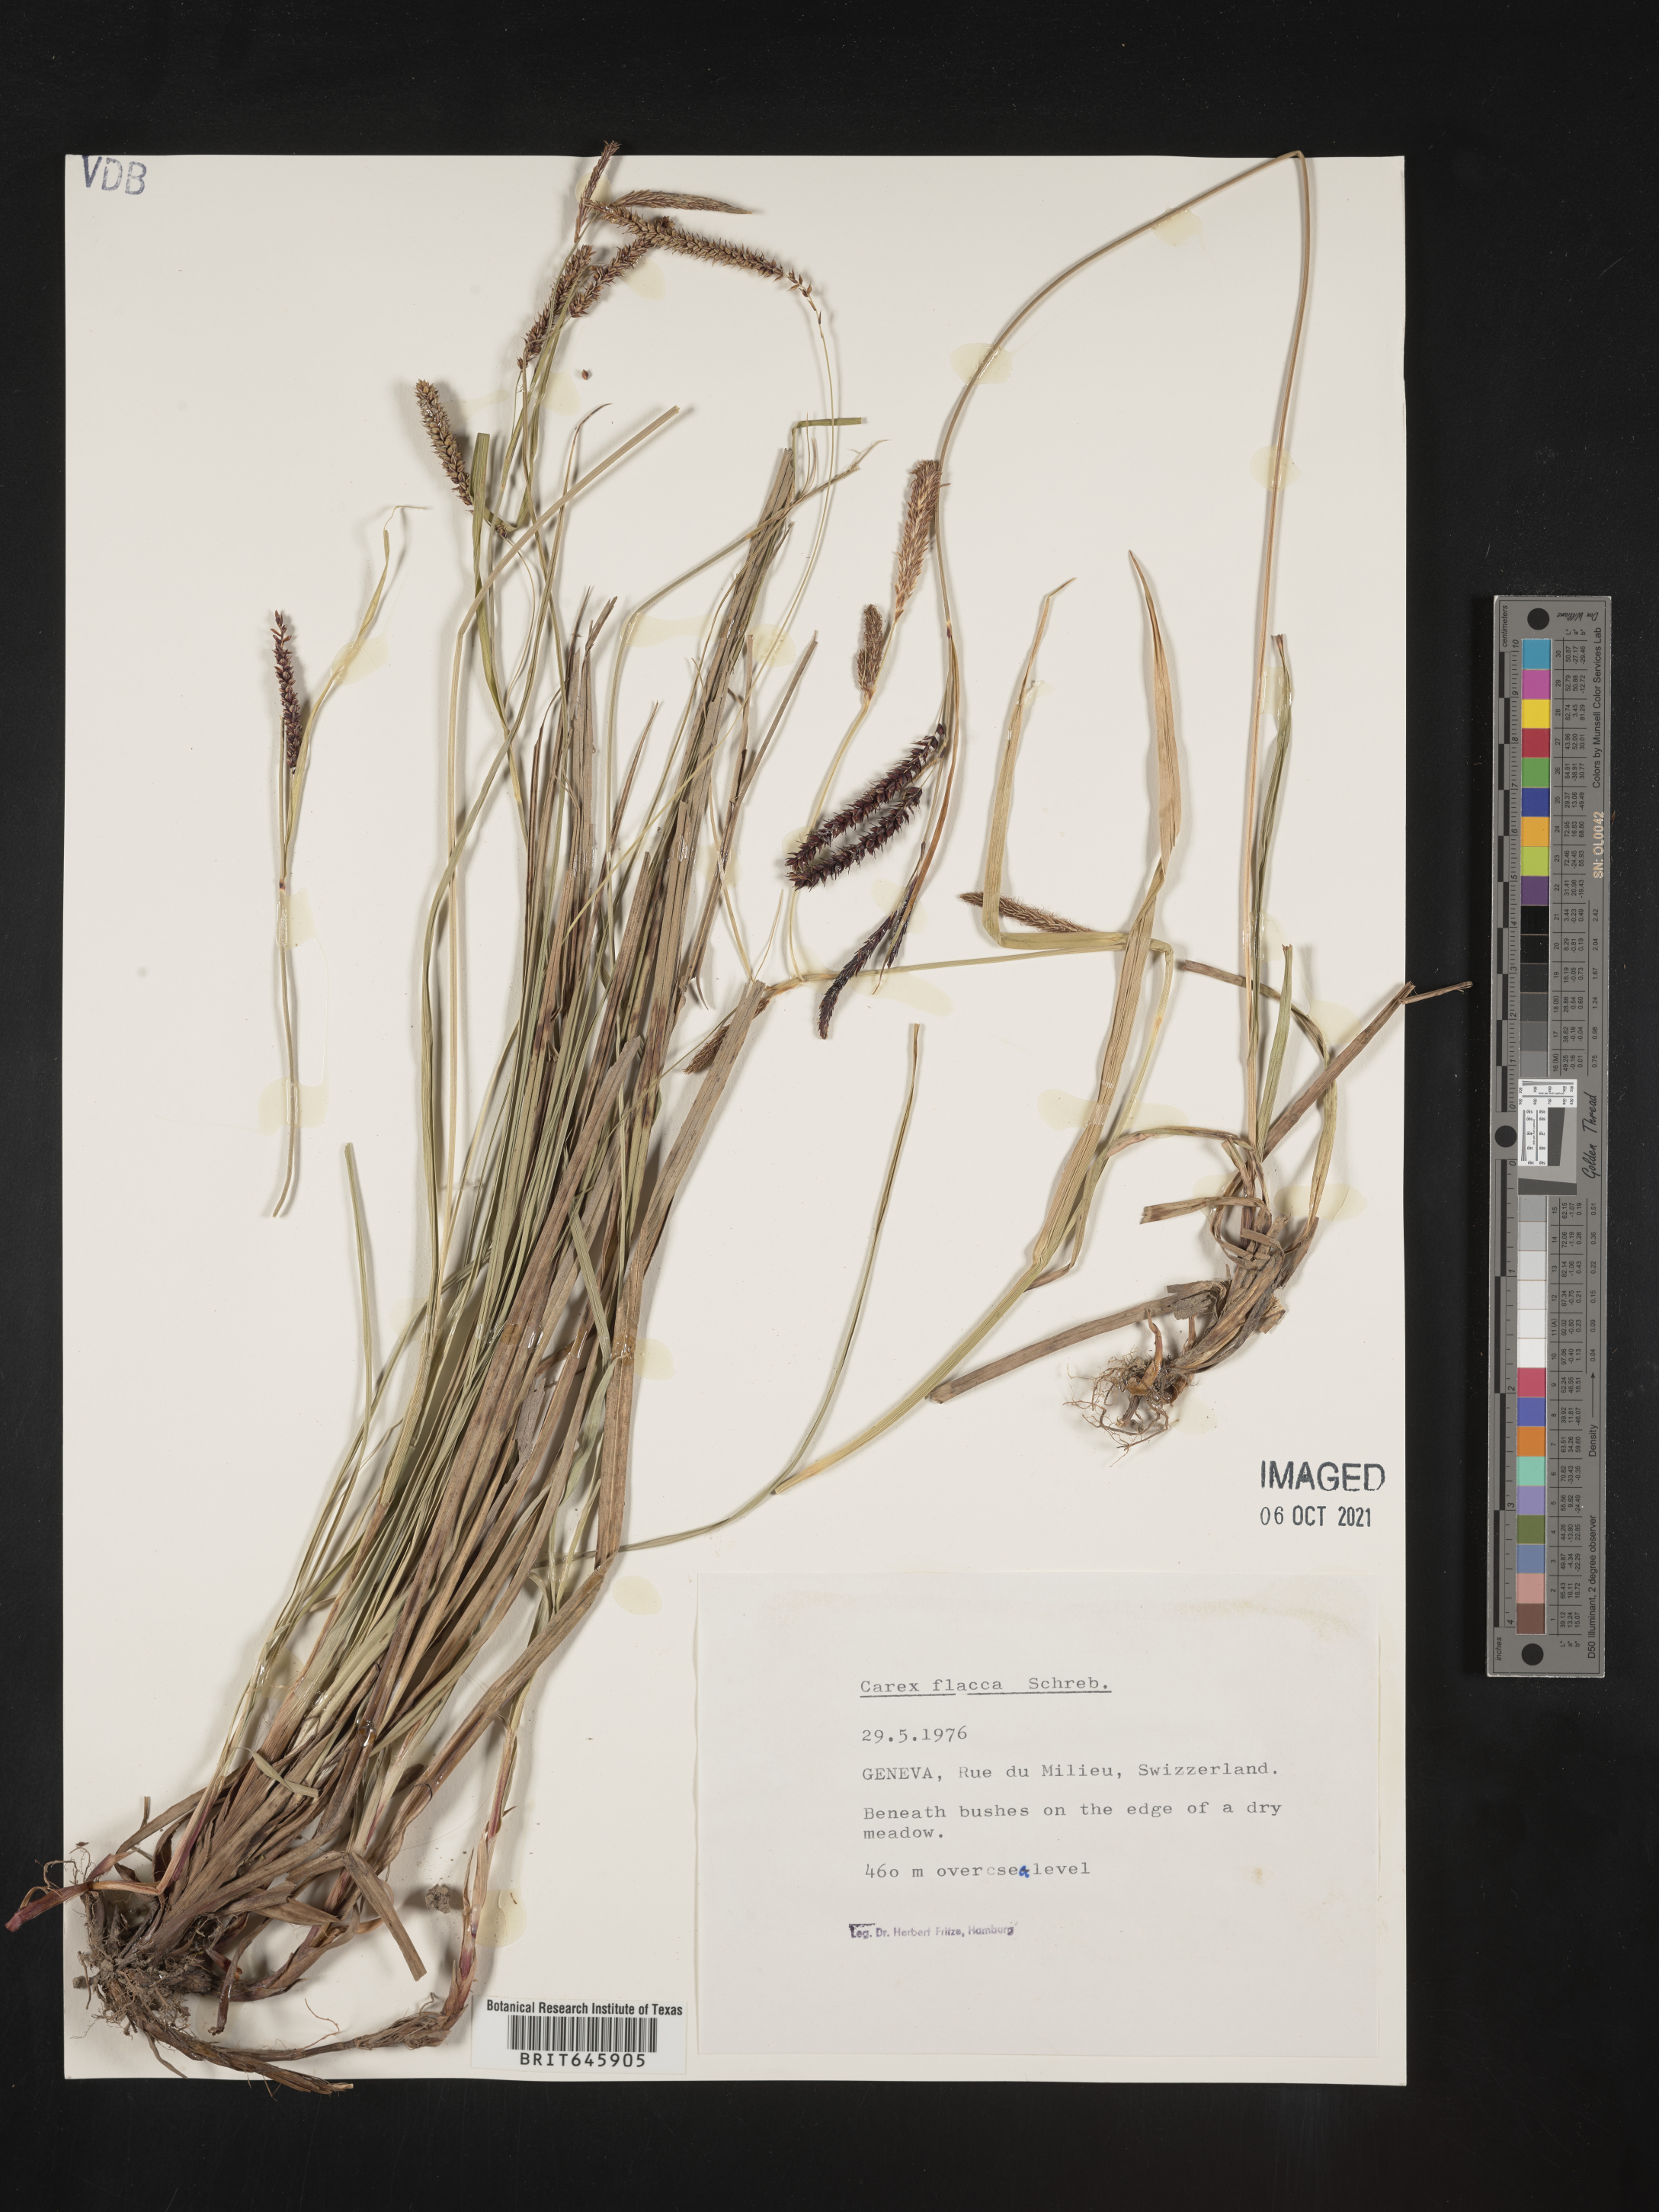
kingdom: Plantae
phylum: Tracheophyta
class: Liliopsida
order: Poales
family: Cyperaceae
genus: Carex
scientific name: Carex flacca
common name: Glaucous sedge
